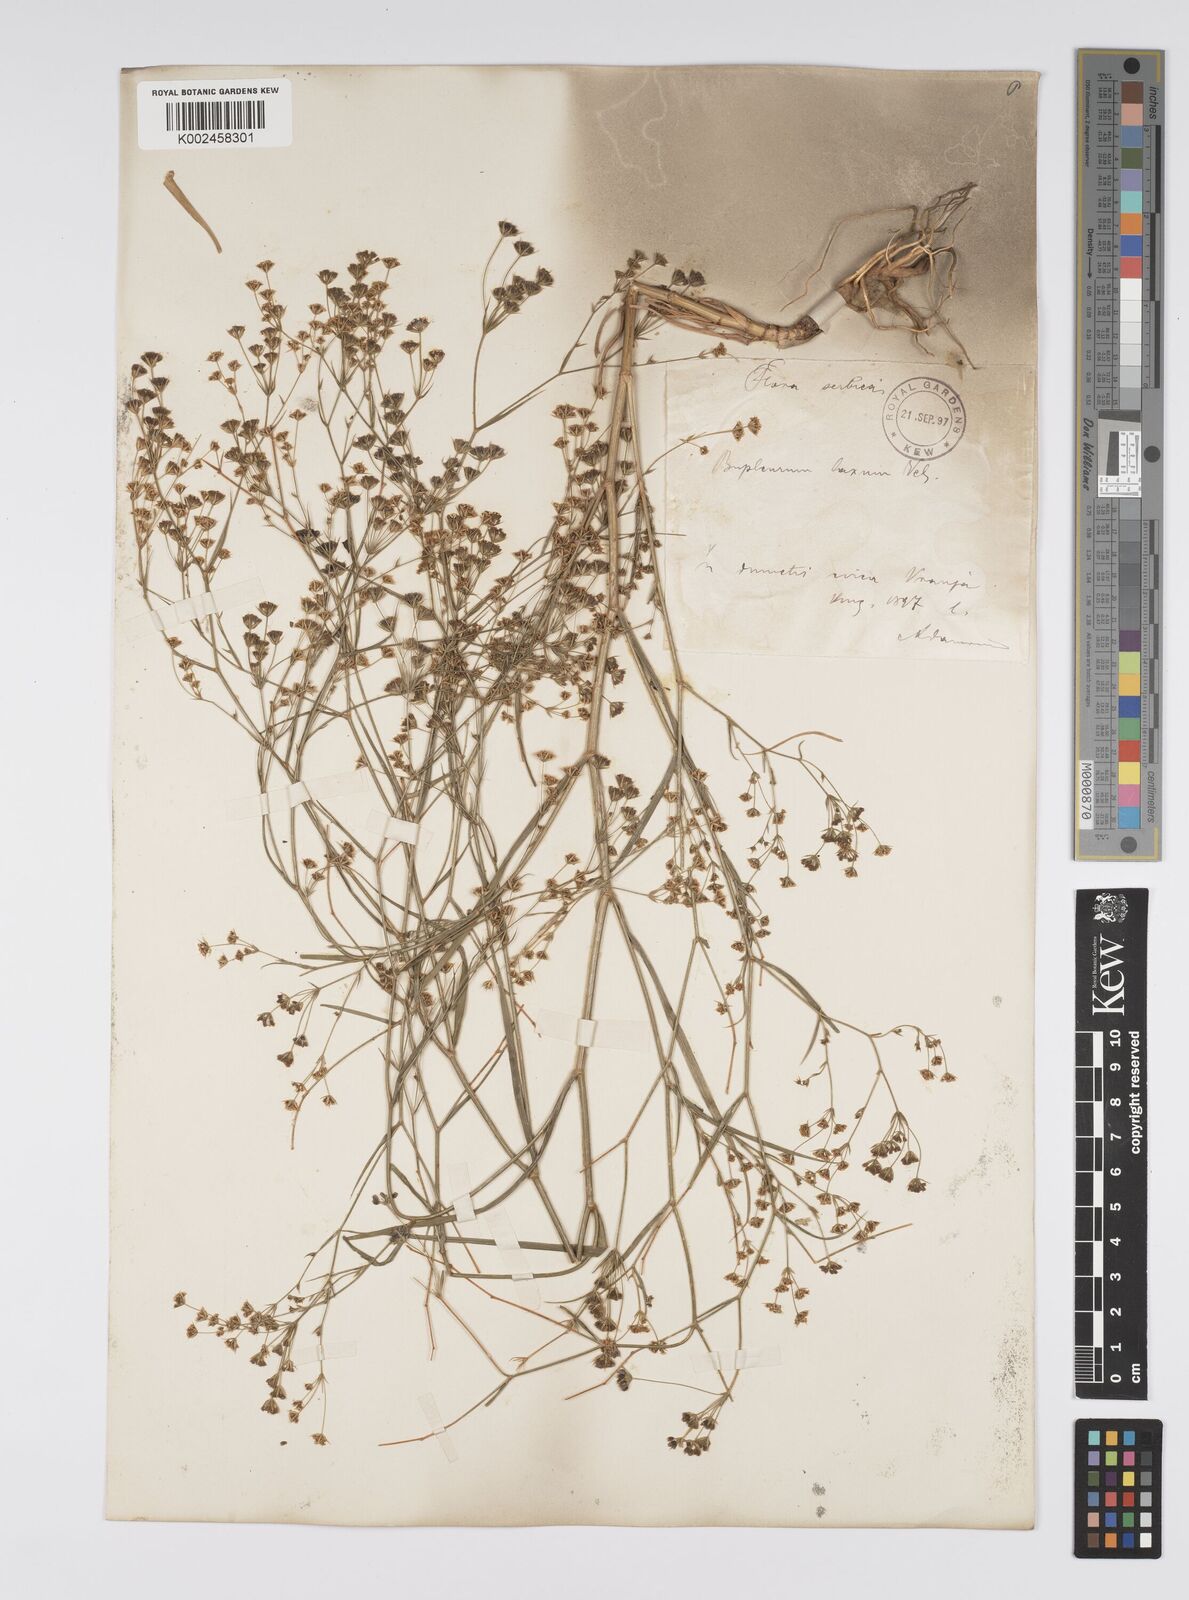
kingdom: Plantae
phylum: Tracheophyta
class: Magnoliopsida
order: Apiales
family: Apiaceae
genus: Bupleurum
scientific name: Bupleurum commutatum
